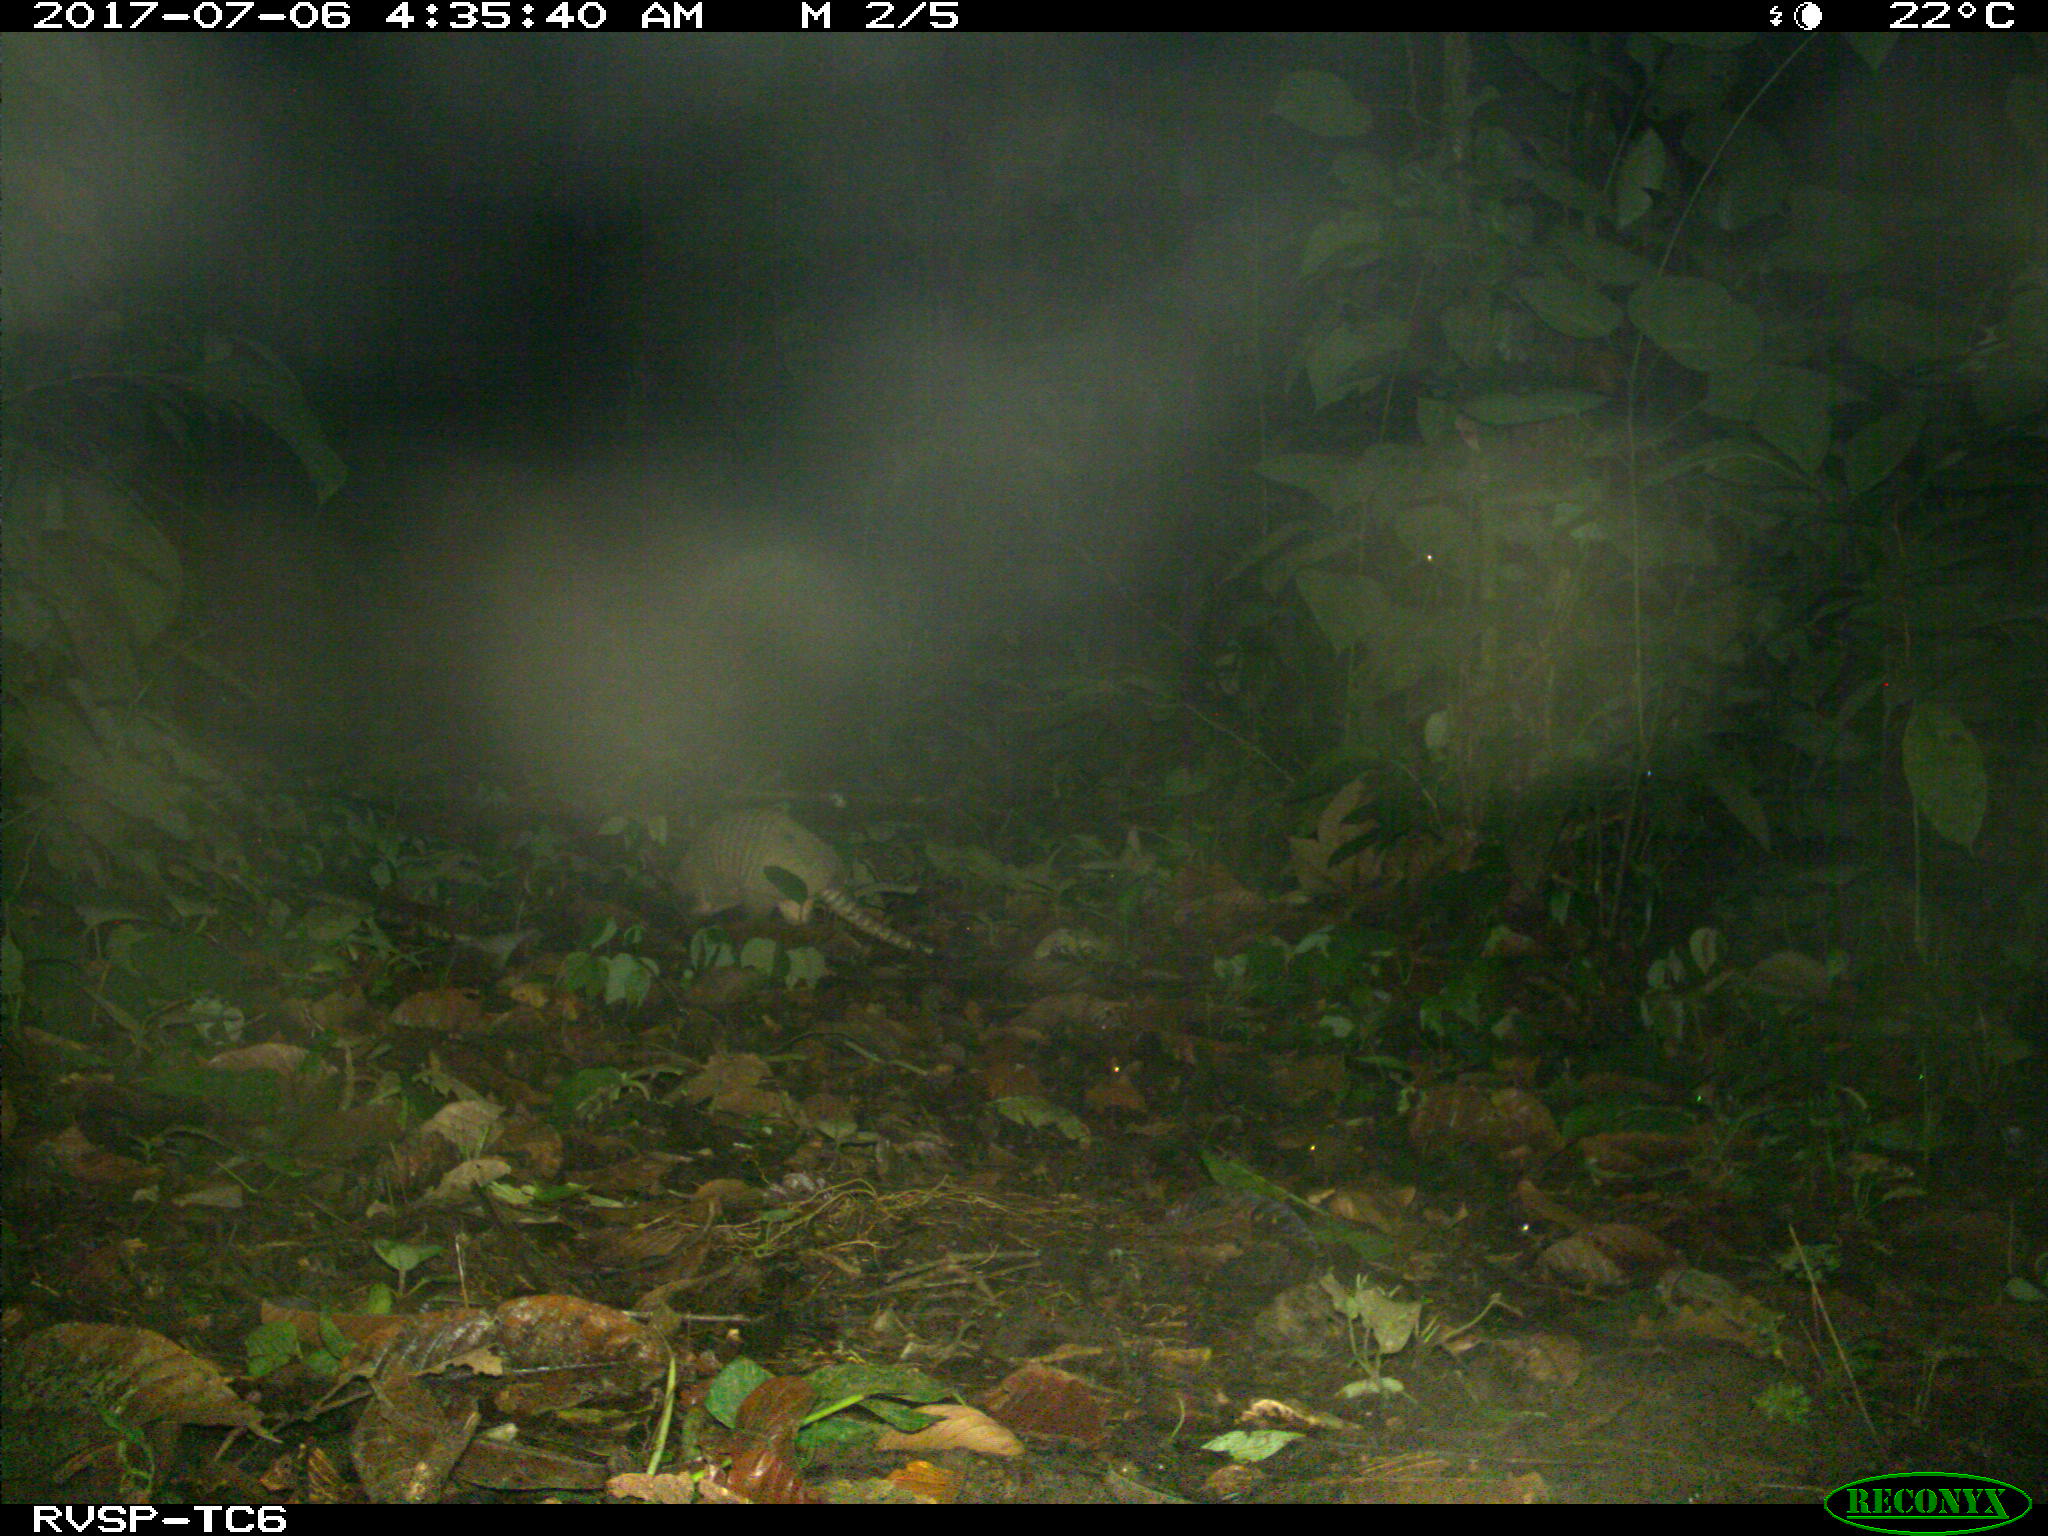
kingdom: Animalia
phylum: Chordata
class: Mammalia
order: Cingulata
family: Dasypodidae
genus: Dasypus
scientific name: Dasypus novemcinctus
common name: Nine-banded armadillo
